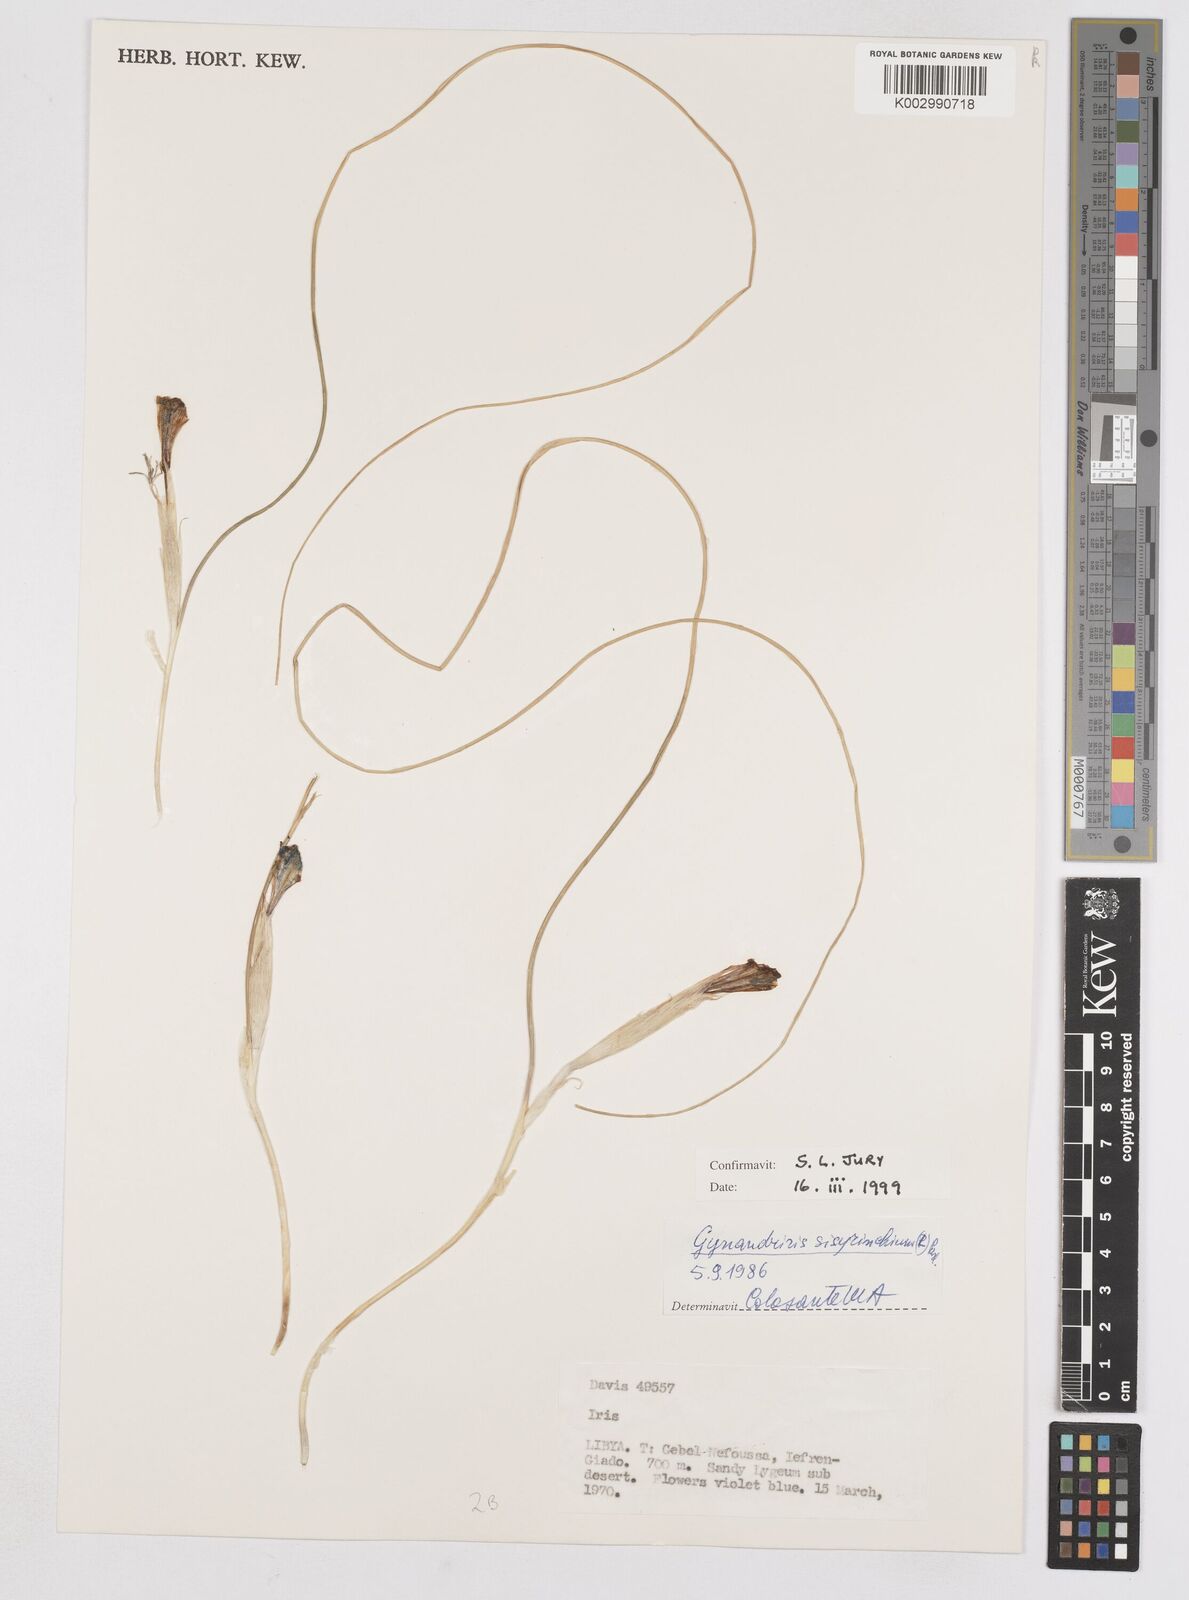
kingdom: Plantae
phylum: Tracheophyta
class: Liliopsida
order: Asparagales
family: Iridaceae
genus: Moraea
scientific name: Moraea sisyrinchium
